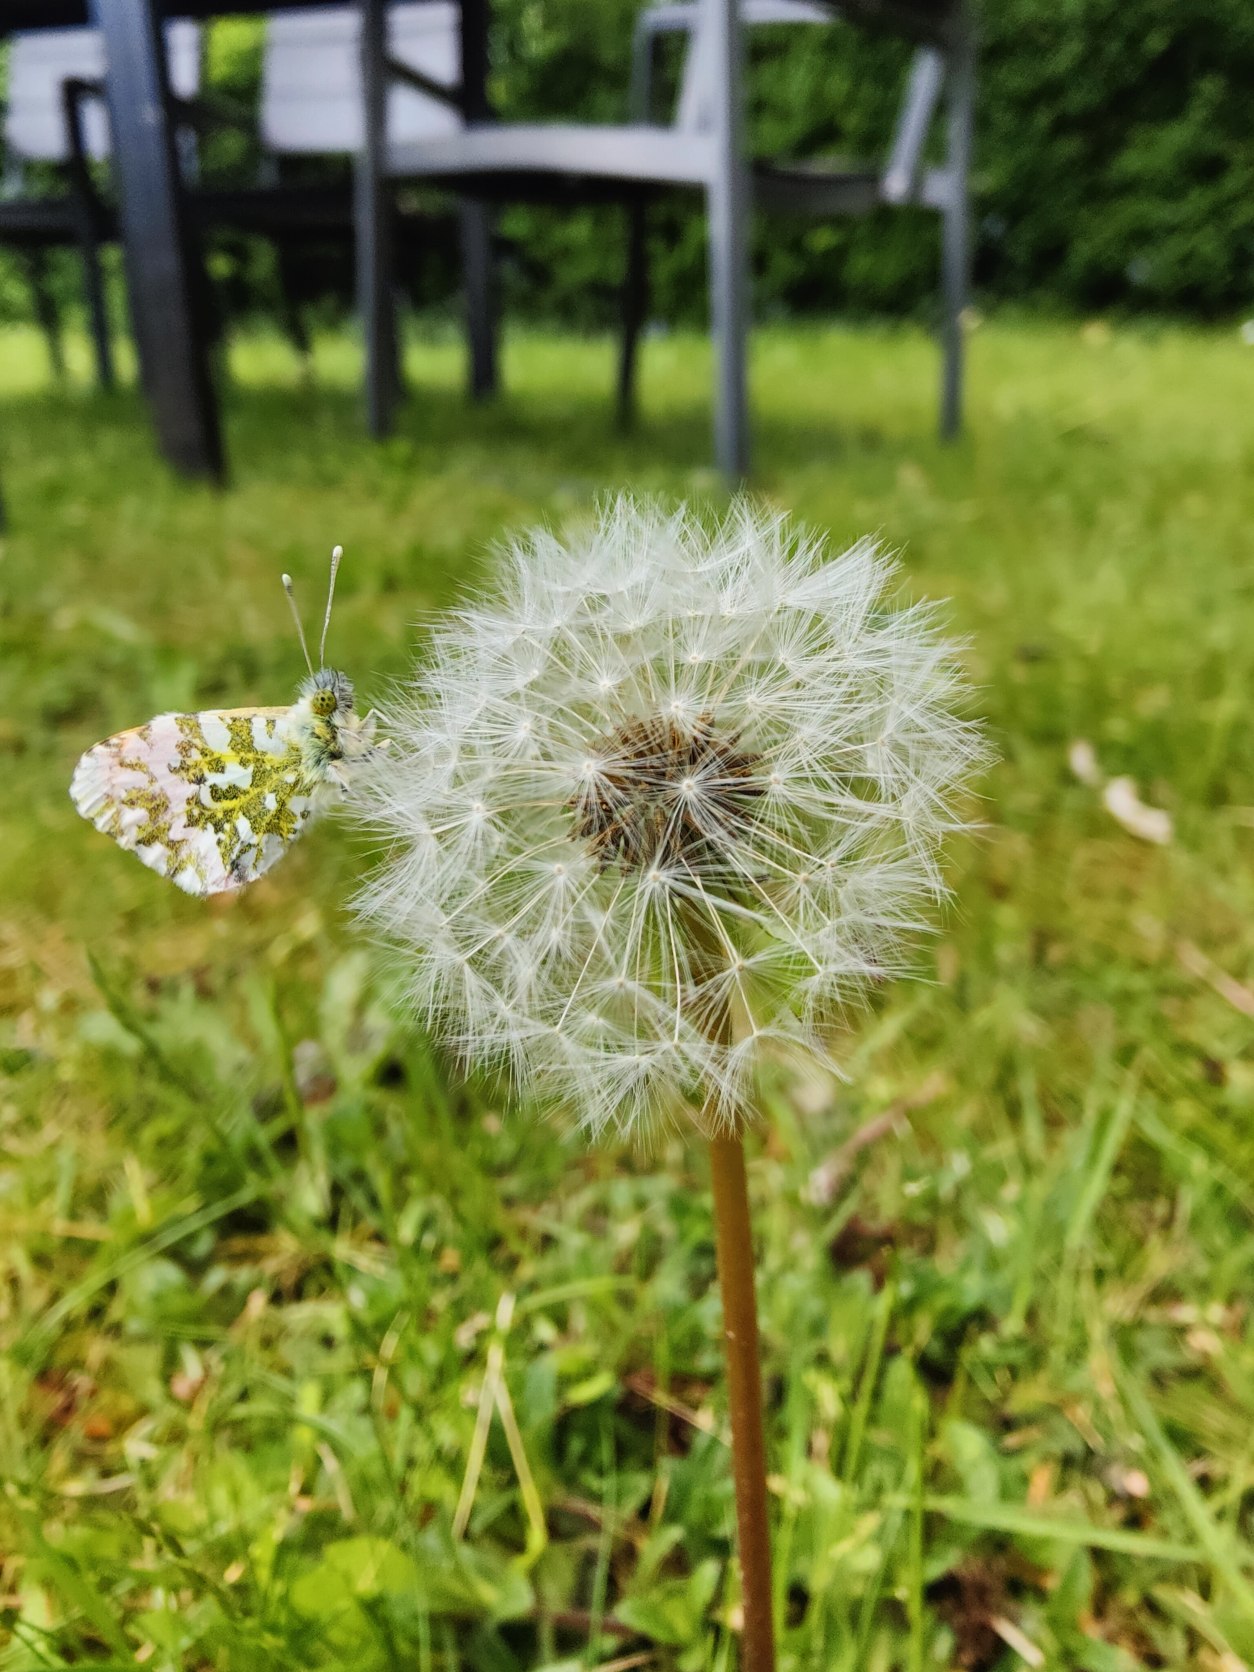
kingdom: Animalia
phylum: Arthropoda
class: Insecta
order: Lepidoptera
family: Pieridae
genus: Anthocharis
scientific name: Anthocharis cardamines
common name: Aurora
